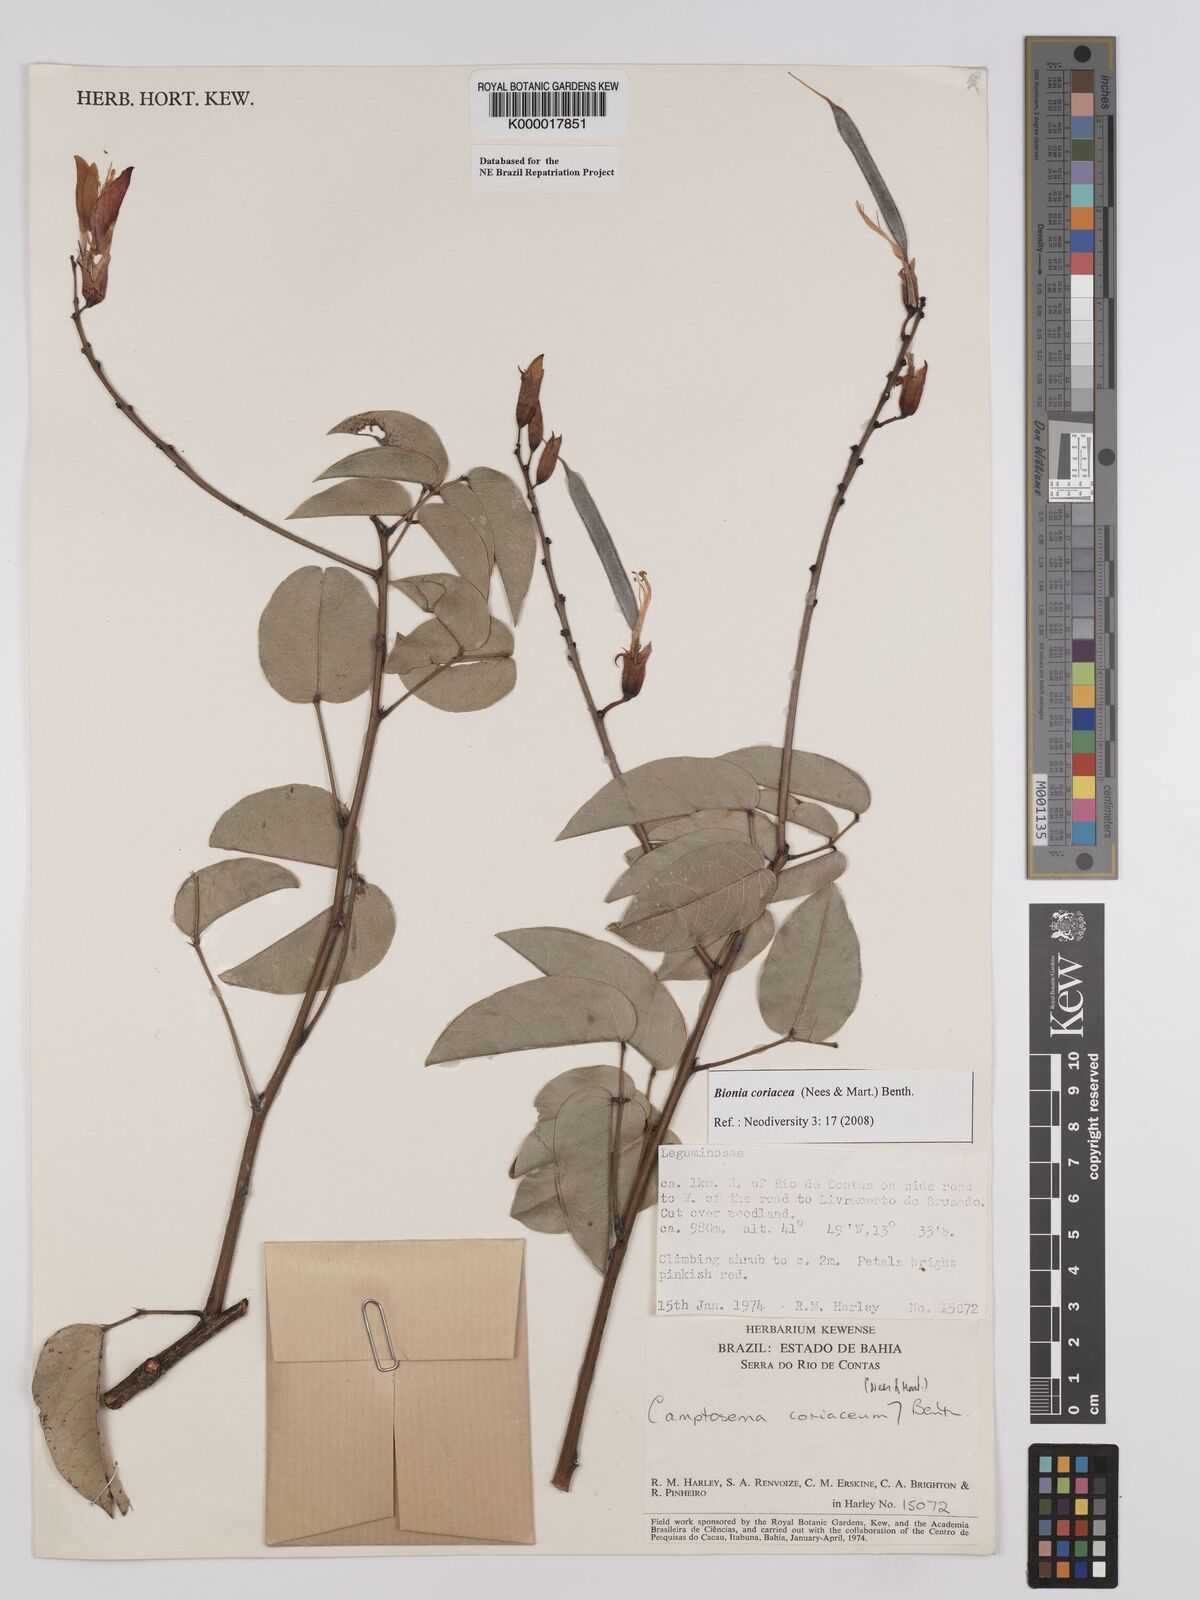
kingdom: Plantae
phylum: Tracheophyta
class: Magnoliopsida
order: Fabales
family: Fabaceae
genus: Camptosema
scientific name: Camptosema coriaceum
